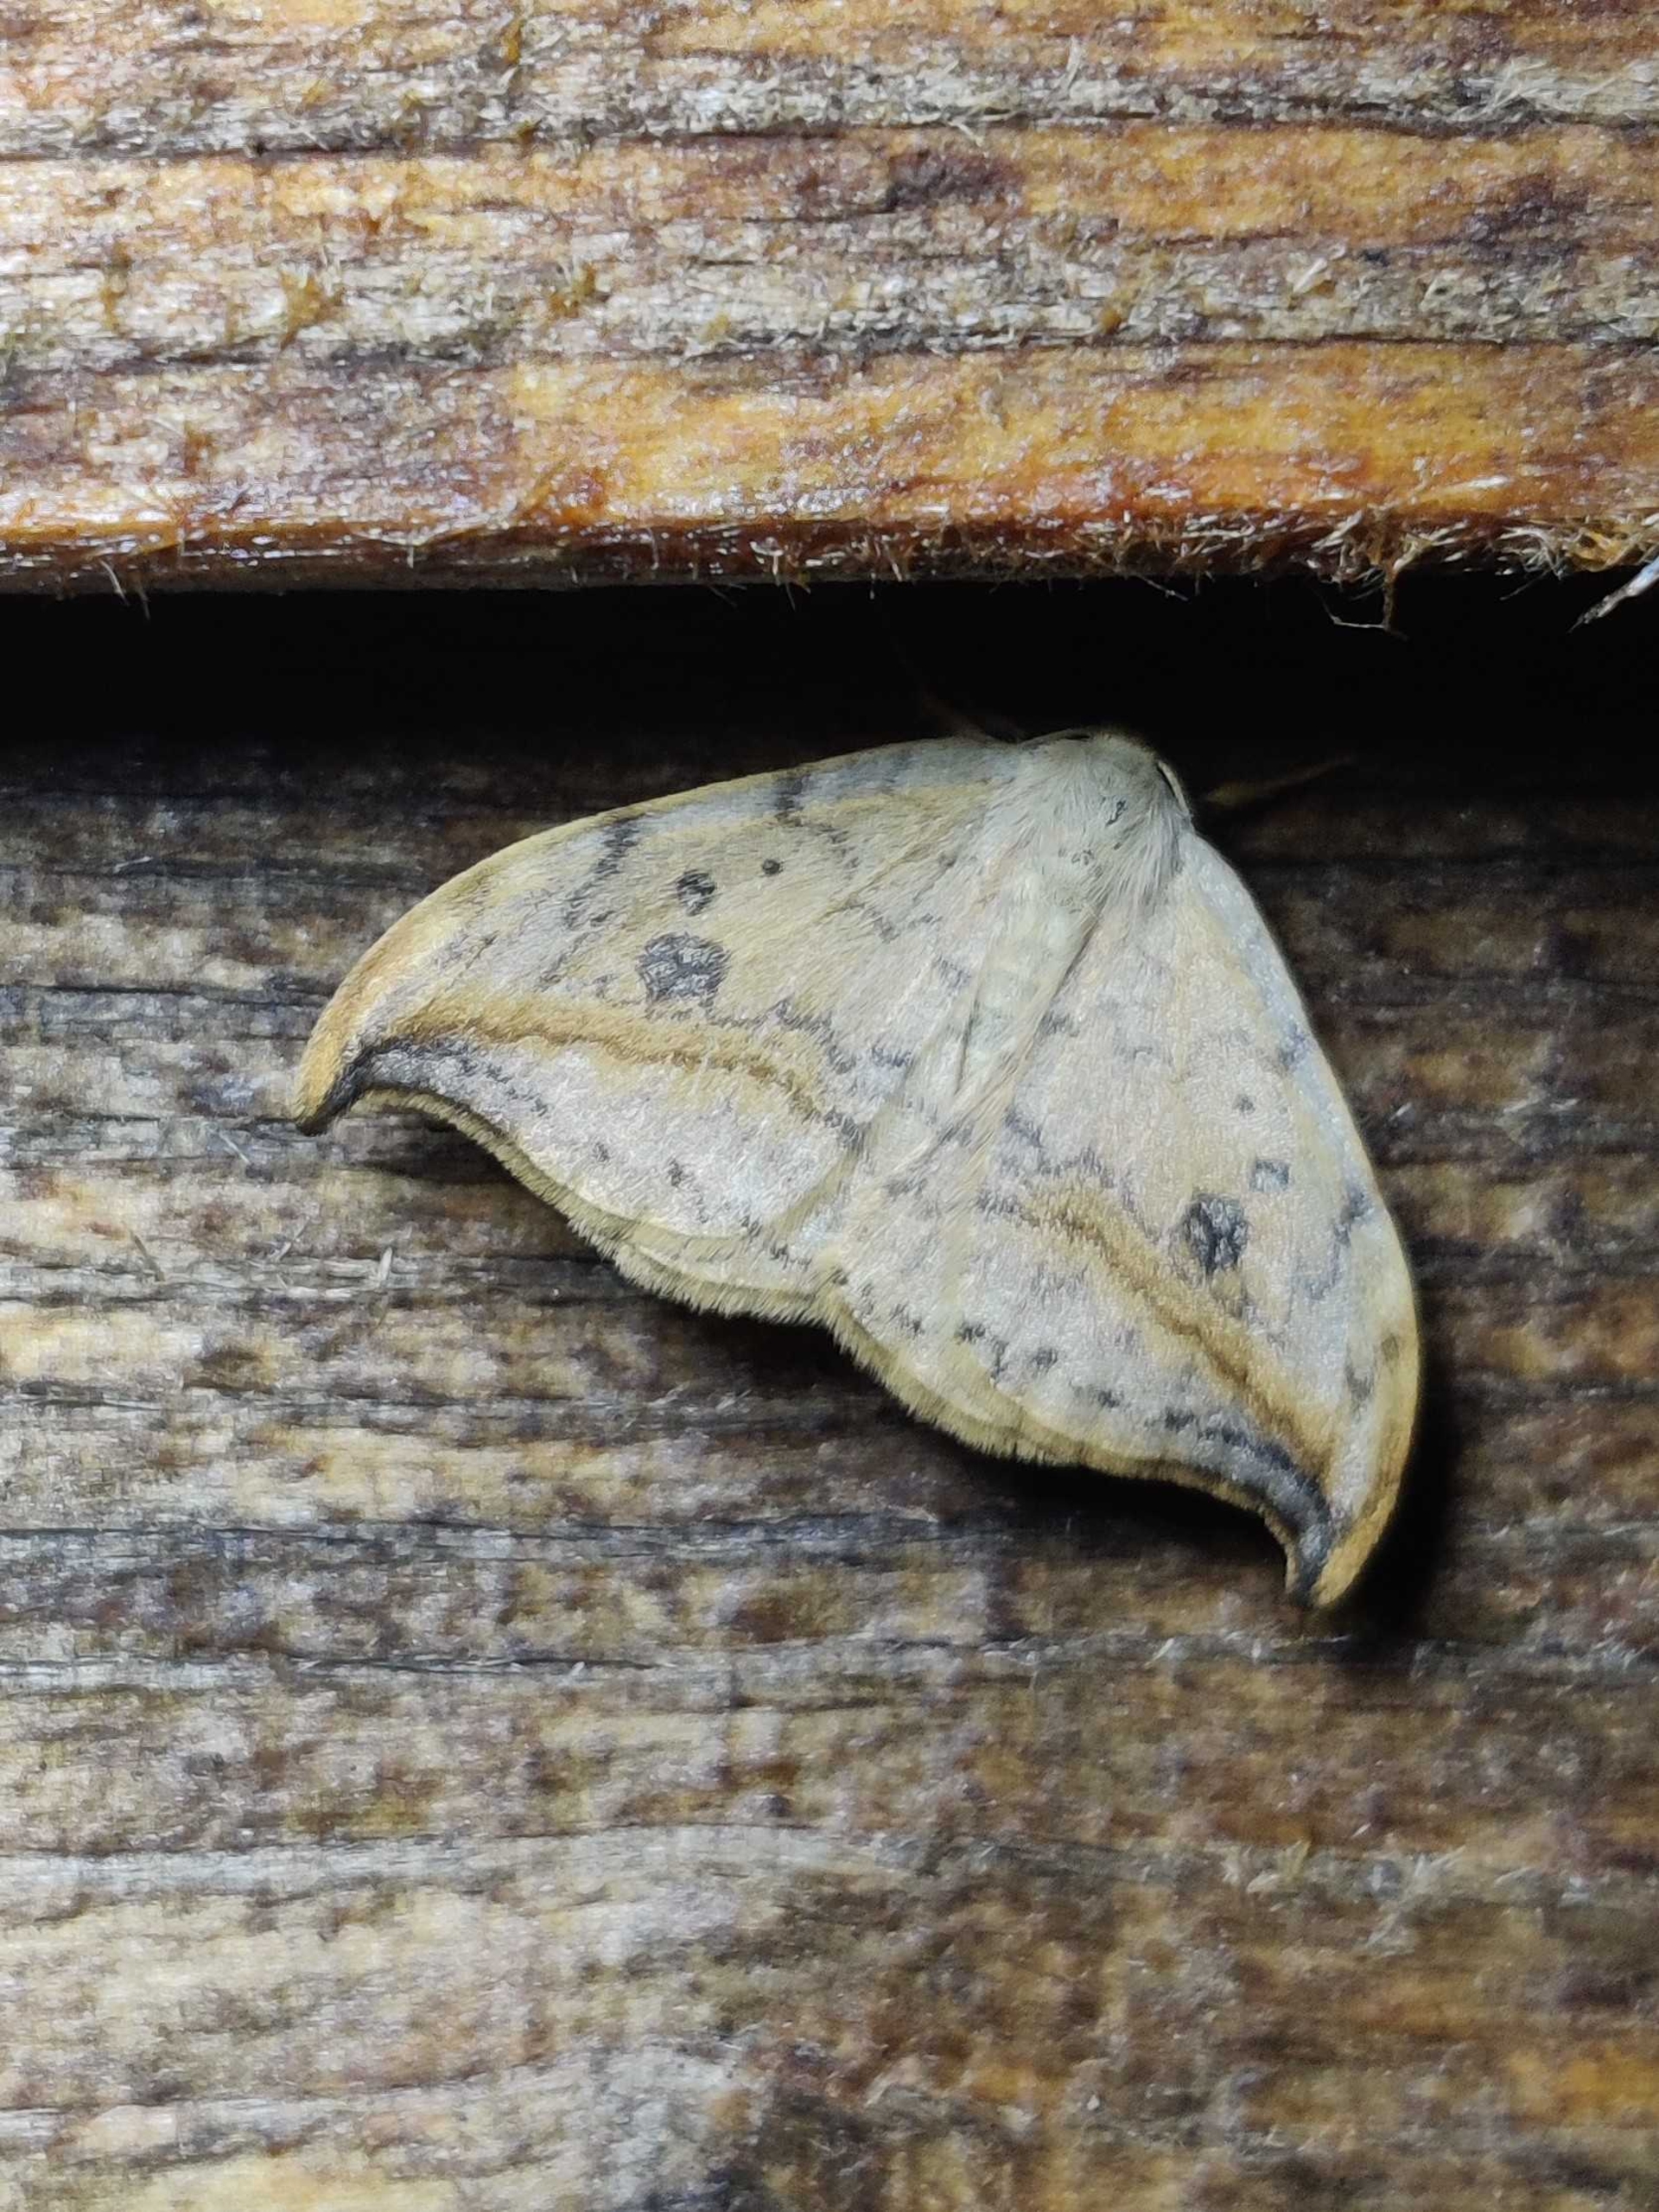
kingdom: Animalia
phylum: Arthropoda
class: Insecta
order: Lepidoptera
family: Drepanidae
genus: Drepana
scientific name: Drepana falcataria
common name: Birkeseglvinge
